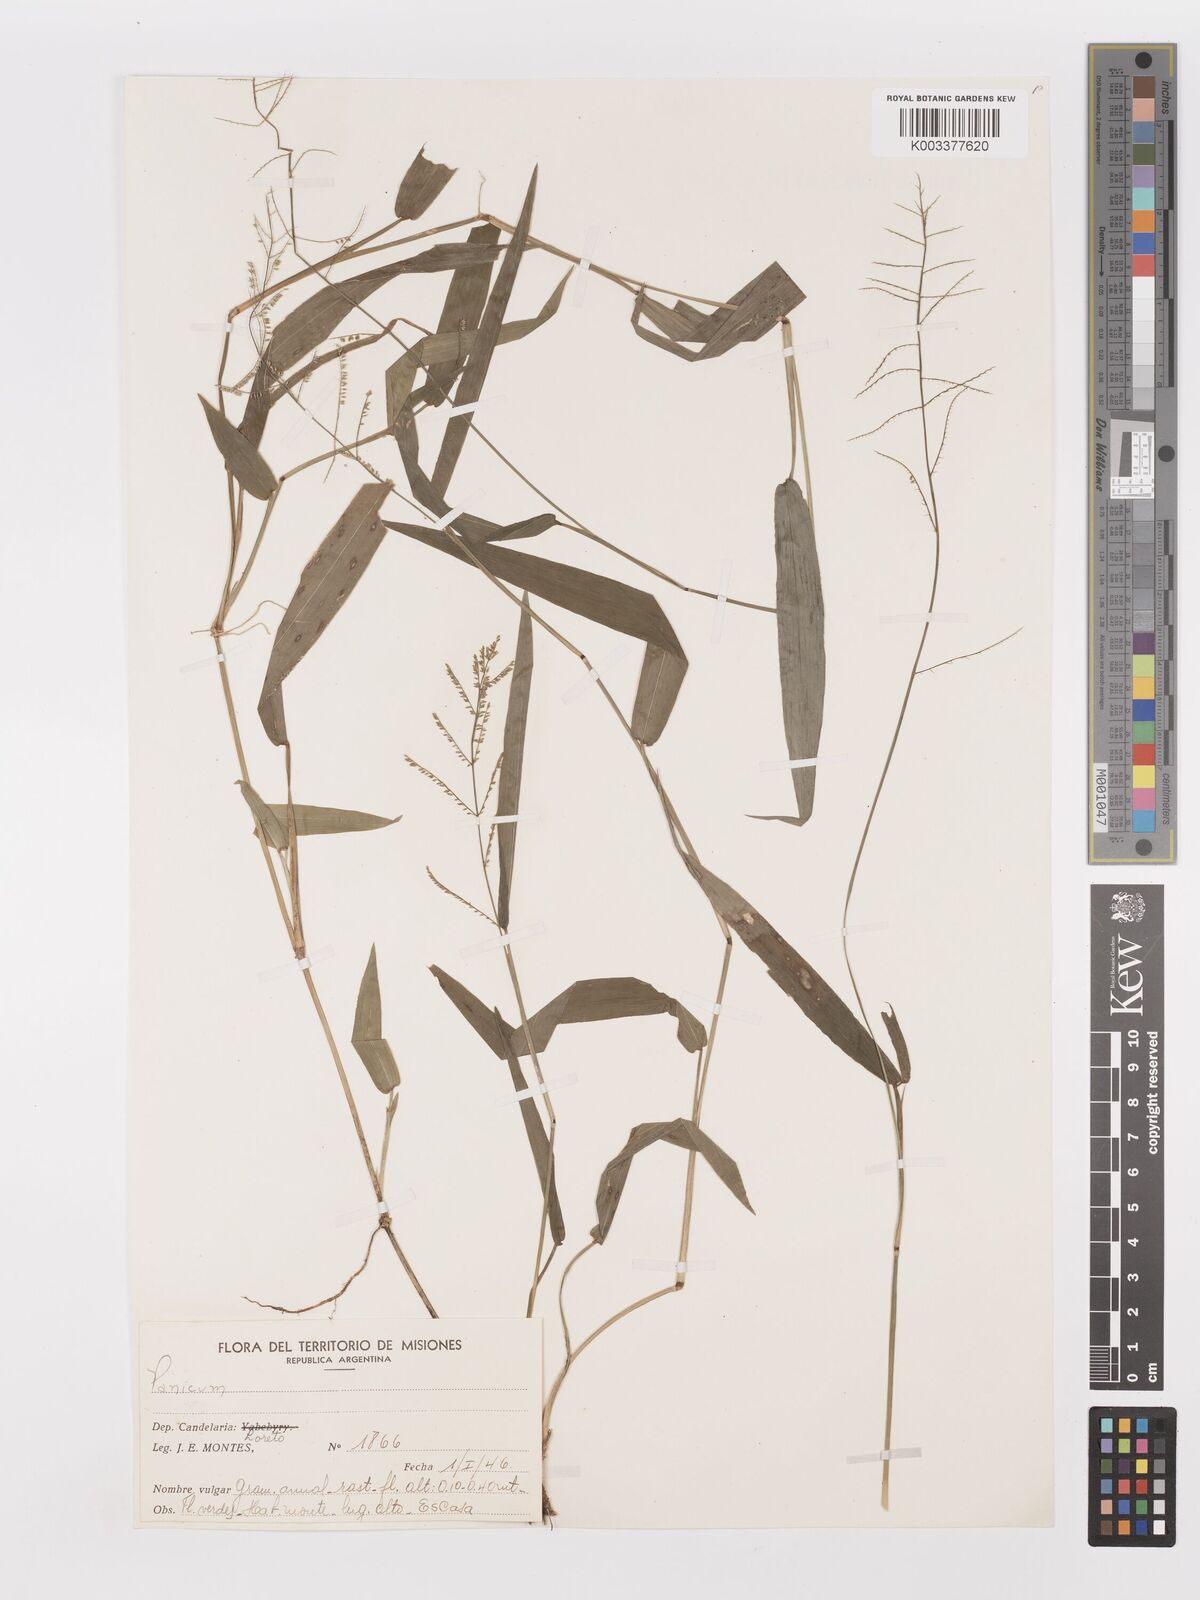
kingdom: Plantae
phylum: Tracheophyta
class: Liliopsida
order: Poales
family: Poaceae
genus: Panicum
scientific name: Panicum
